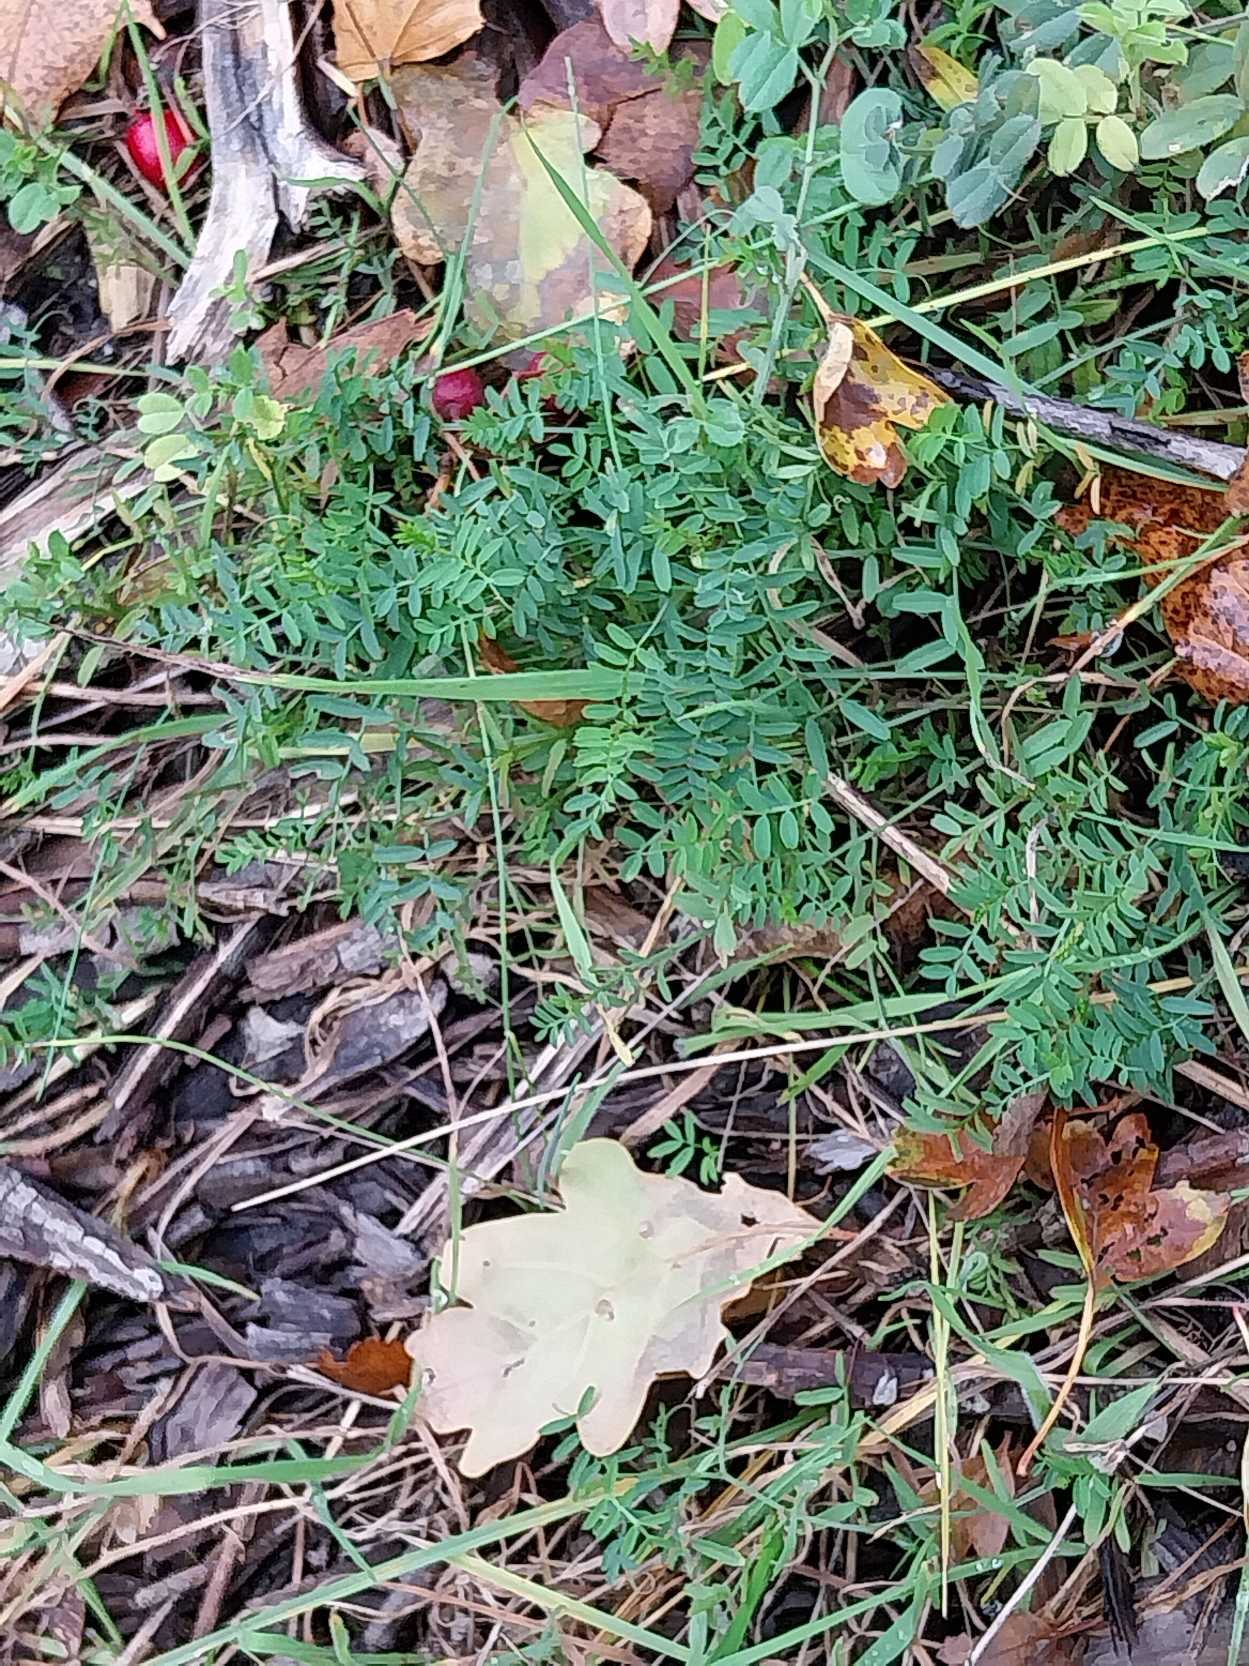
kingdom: Plantae
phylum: Tracheophyta
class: Magnoliopsida
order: Fabales
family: Fabaceae
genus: Vicia
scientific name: Vicia hirsuta
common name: Tofrøet vikke
